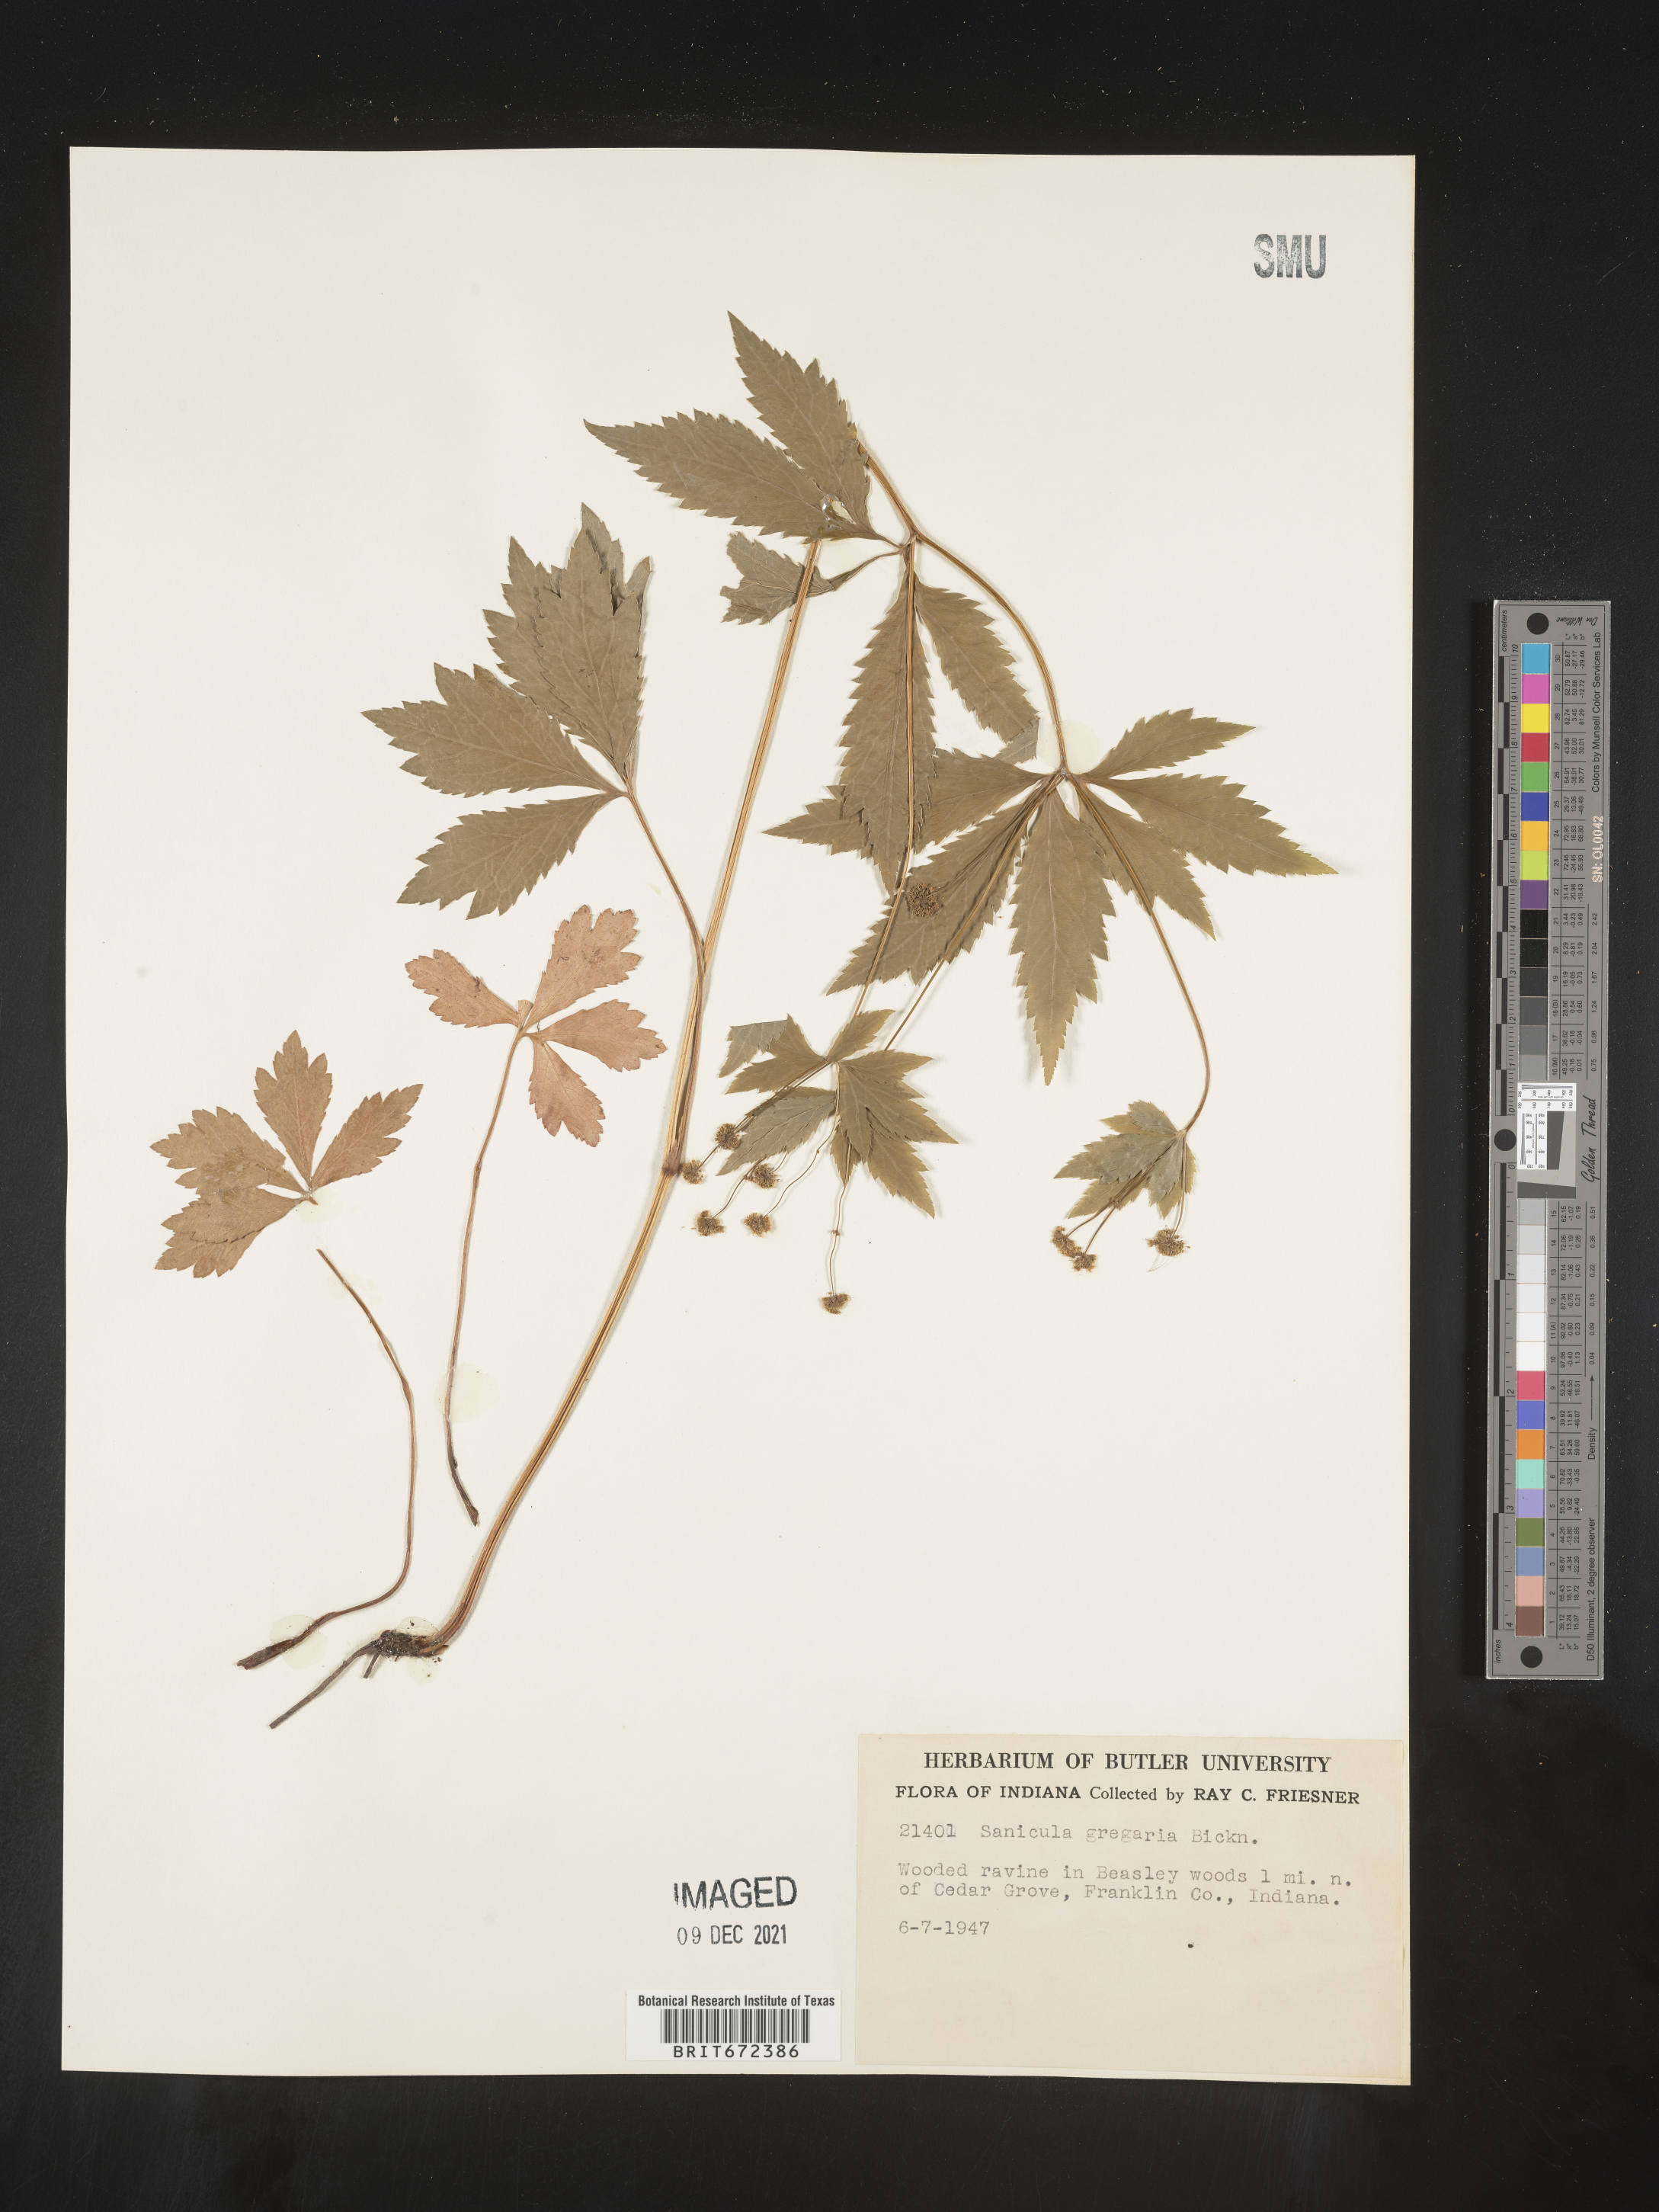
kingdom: Plantae
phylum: Tracheophyta
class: Magnoliopsida
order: Apiales
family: Apiaceae
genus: Sanicula
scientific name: Sanicula odorata
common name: Cluster sanicle
